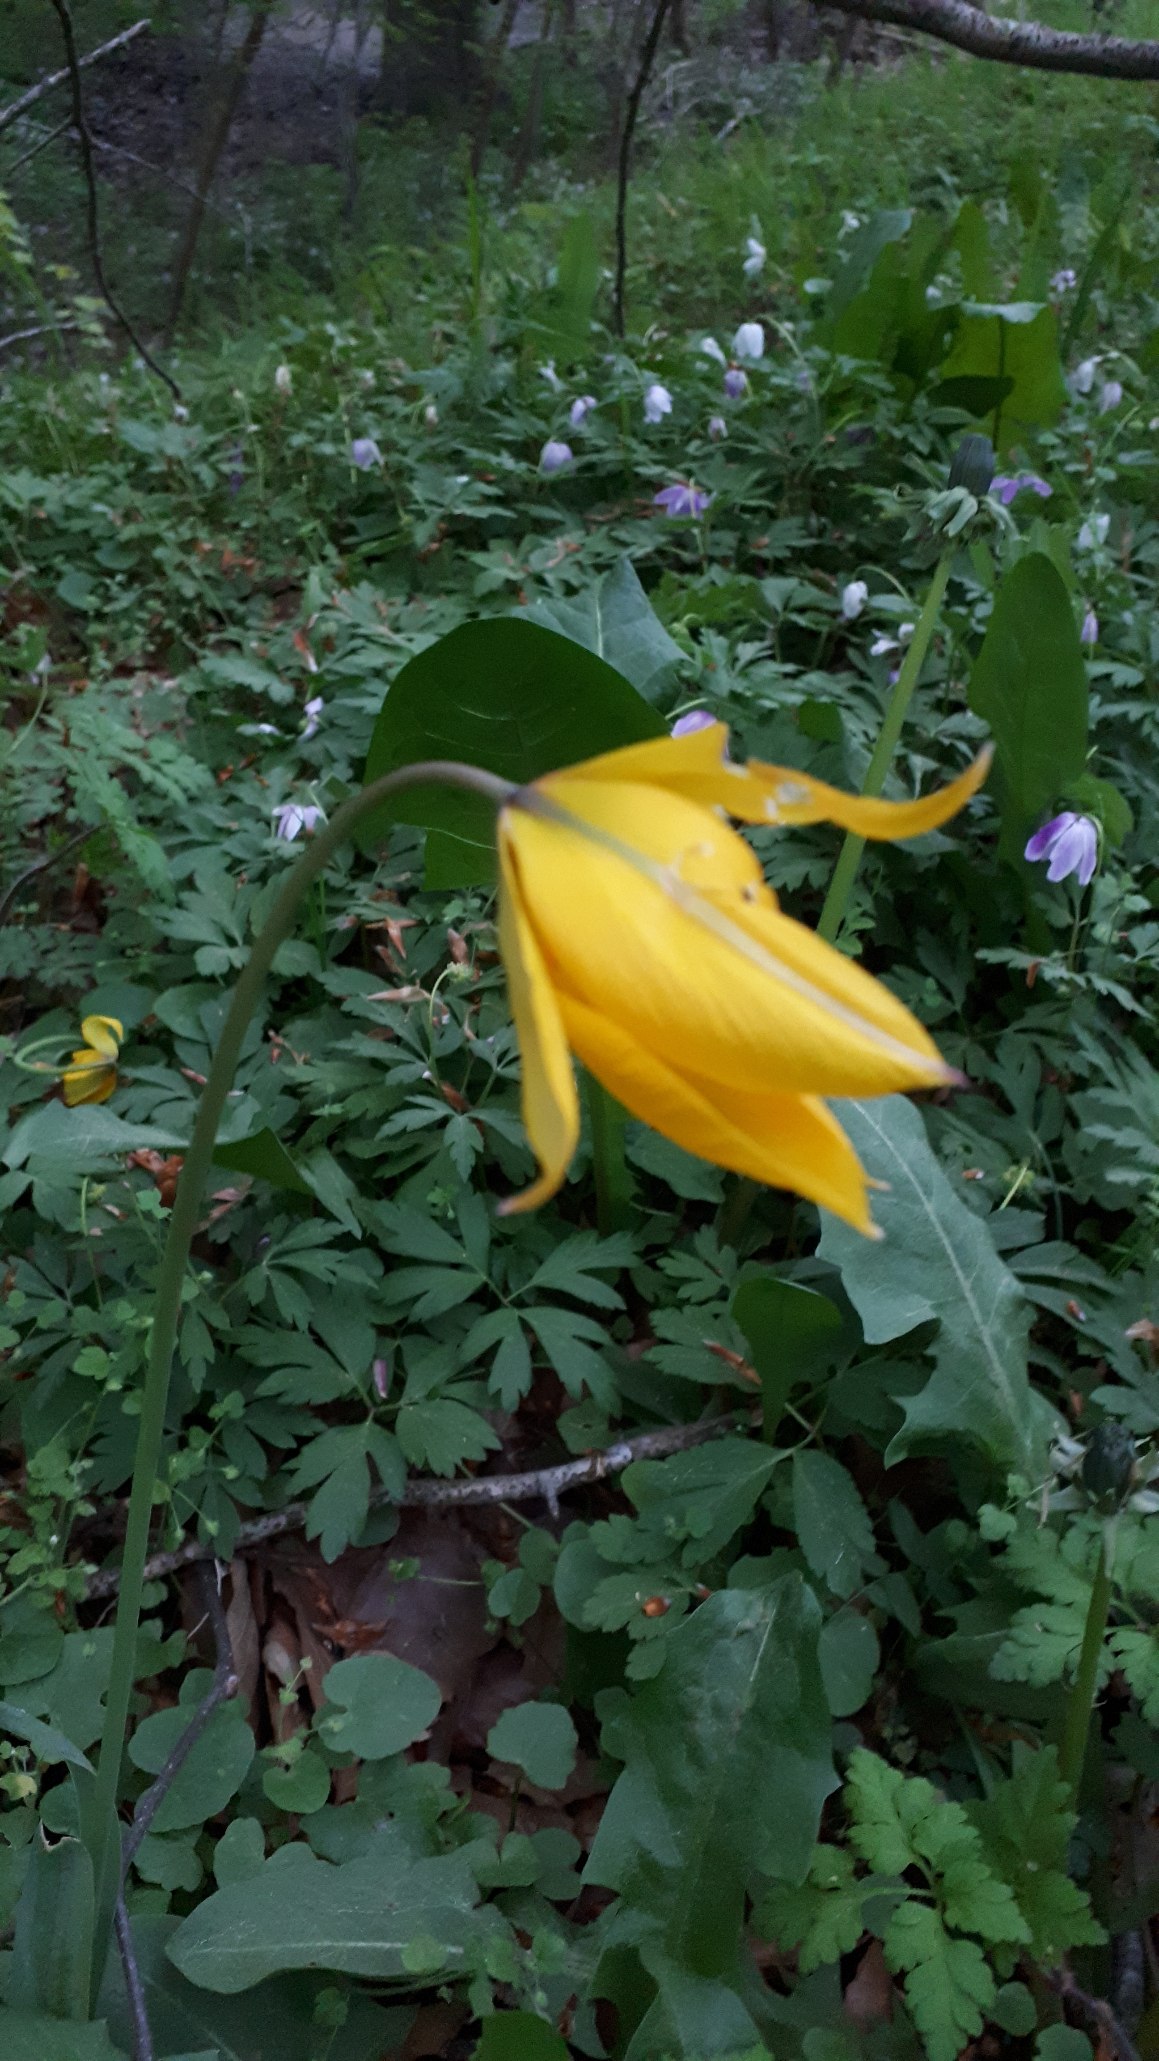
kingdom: Plantae
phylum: Tracheophyta
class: Liliopsida
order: Liliales
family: Liliaceae
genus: Tulipa
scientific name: Tulipa sylvestris
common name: Vild tulipan
